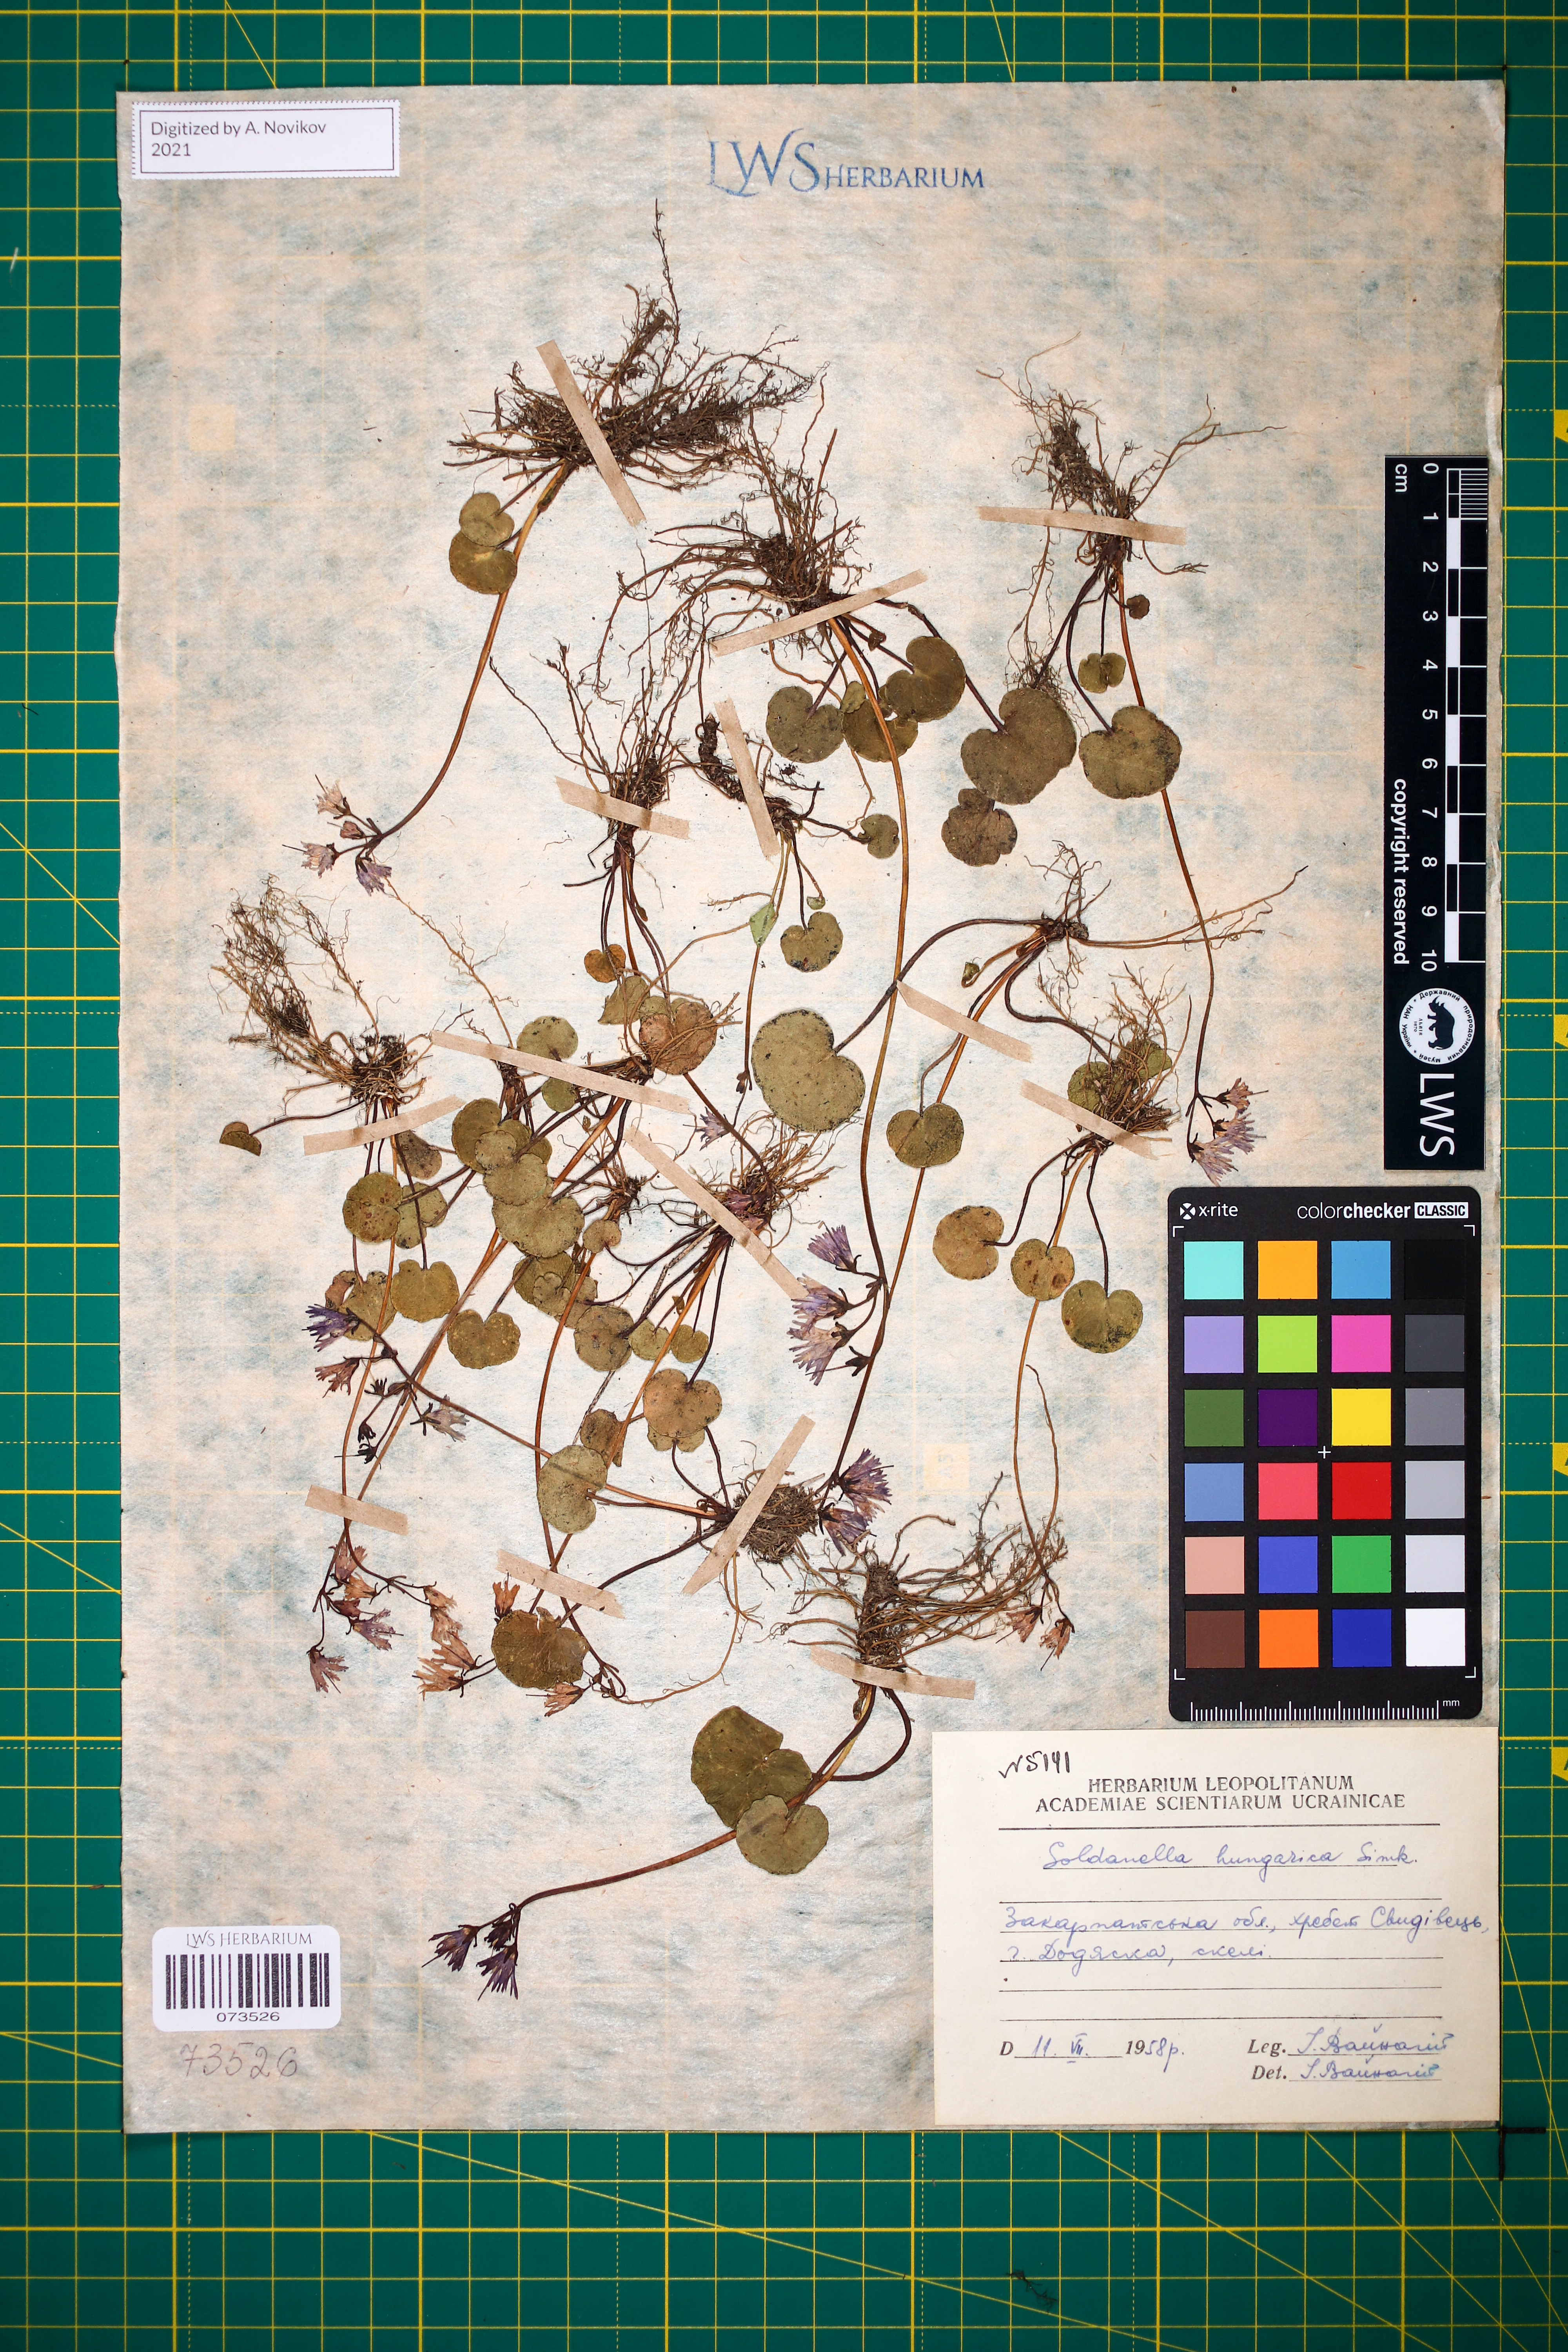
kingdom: Plantae
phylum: Tracheophyta
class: Magnoliopsida
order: Ericales
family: Primulaceae
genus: Soldanella
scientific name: Soldanella hungarica
